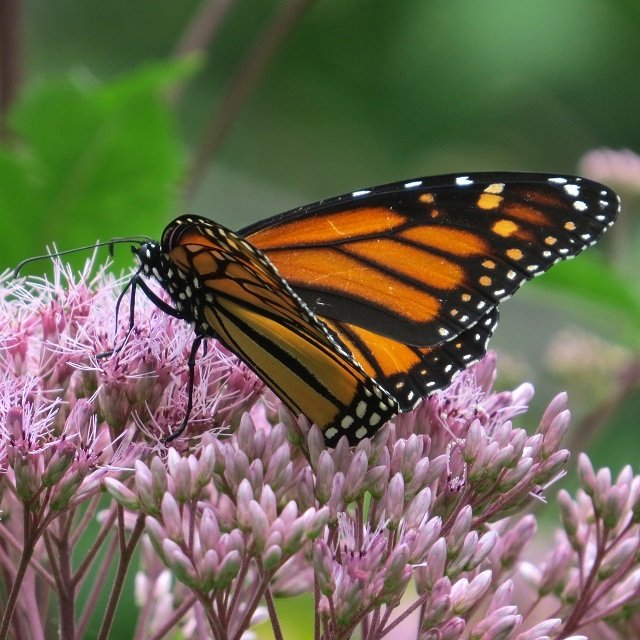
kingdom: Animalia
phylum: Arthropoda
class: Insecta
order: Lepidoptera
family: Nymphalidae
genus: Danaus
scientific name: Danaus plexippus
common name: Monarch
